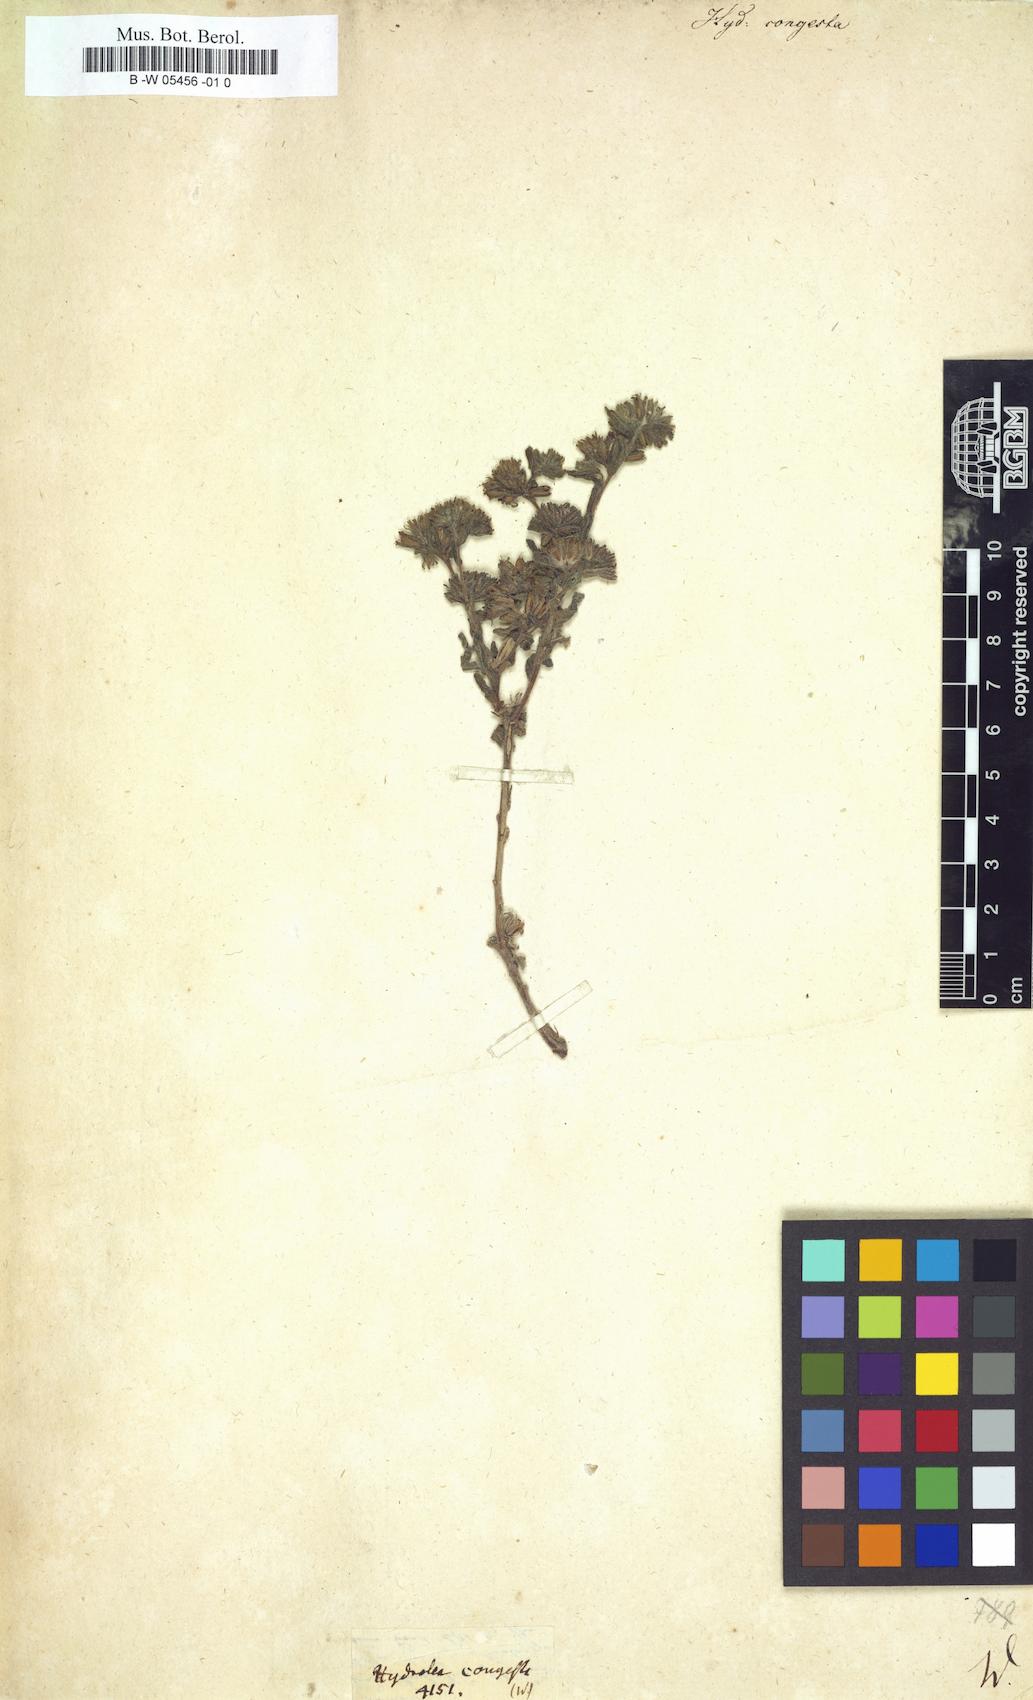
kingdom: Plantae
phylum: Tracheophyta
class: Magnoliopsida
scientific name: Magnoliopsida
